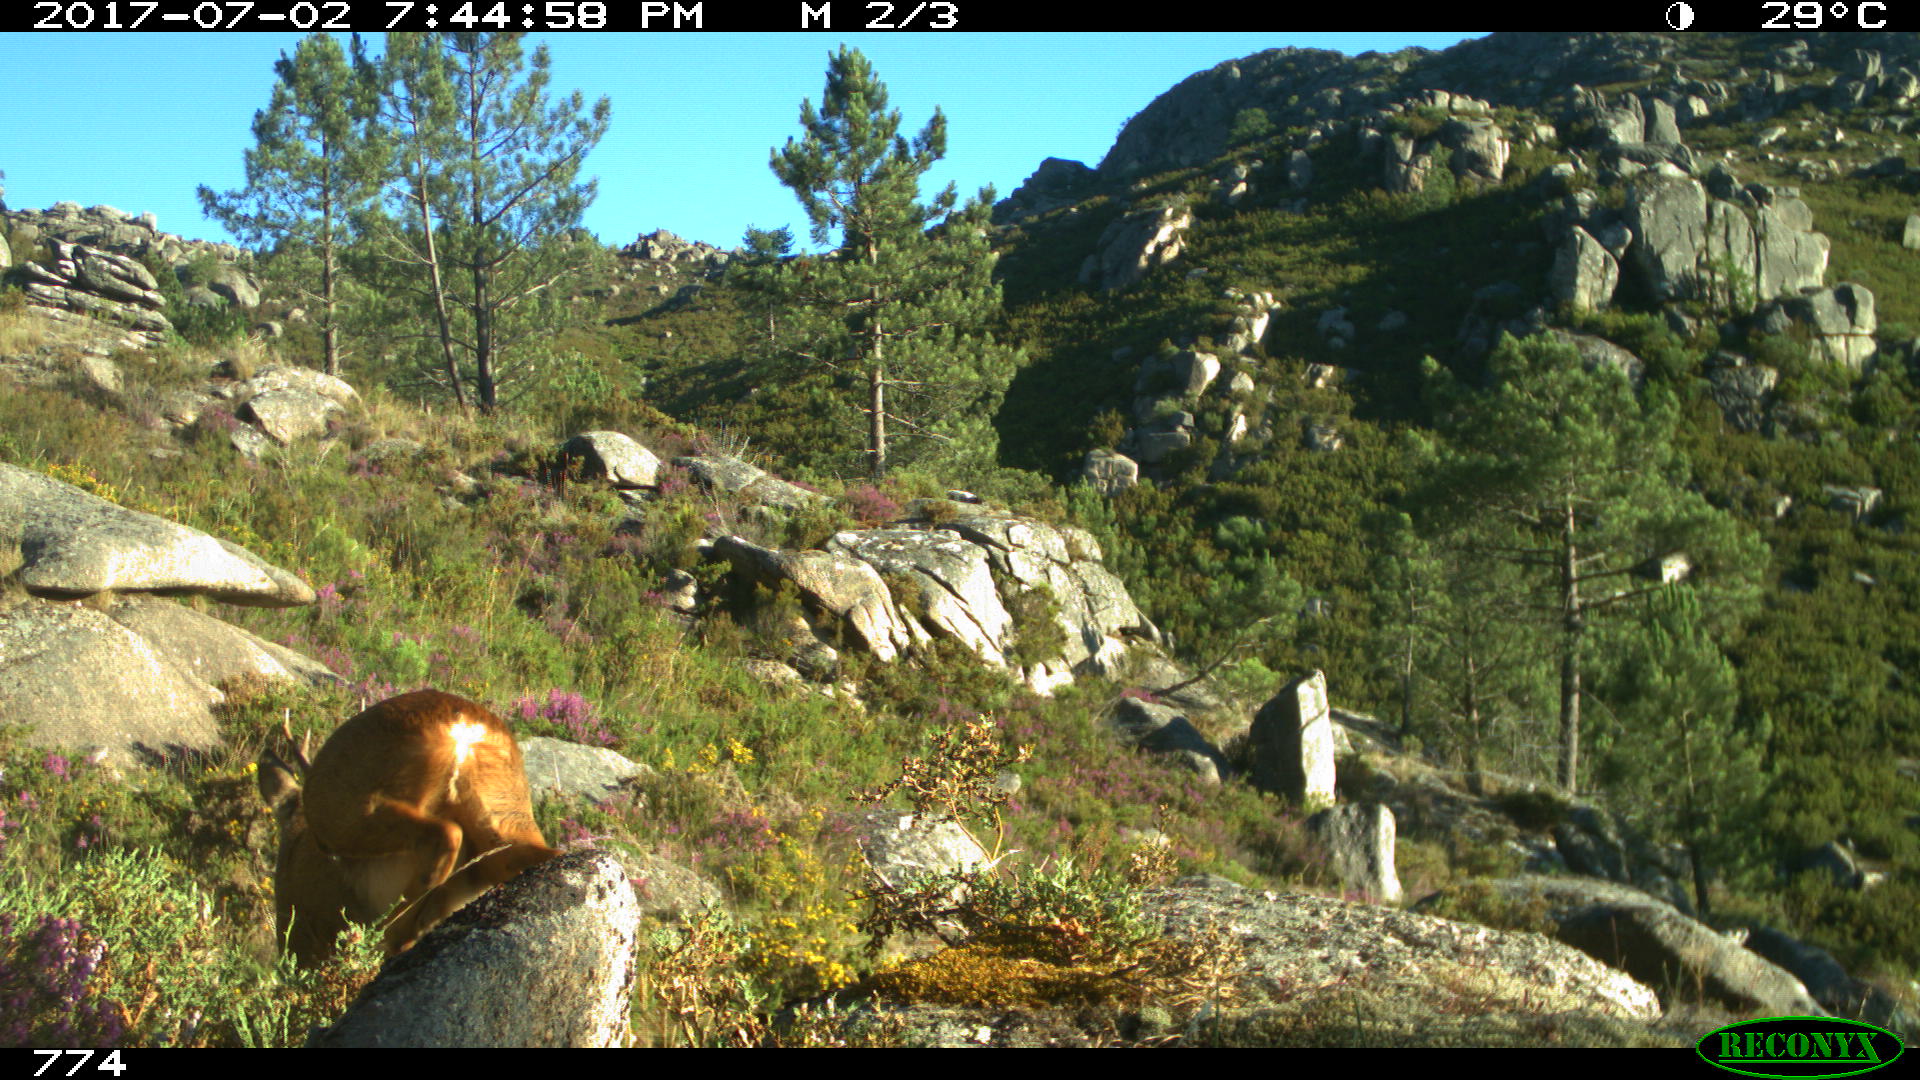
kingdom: Animalia
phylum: Chordata
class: Mammalia
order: Artiodactyla
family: Cervidae
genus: Capreolus
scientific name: Capreolus capreolus
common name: Western roe deer
